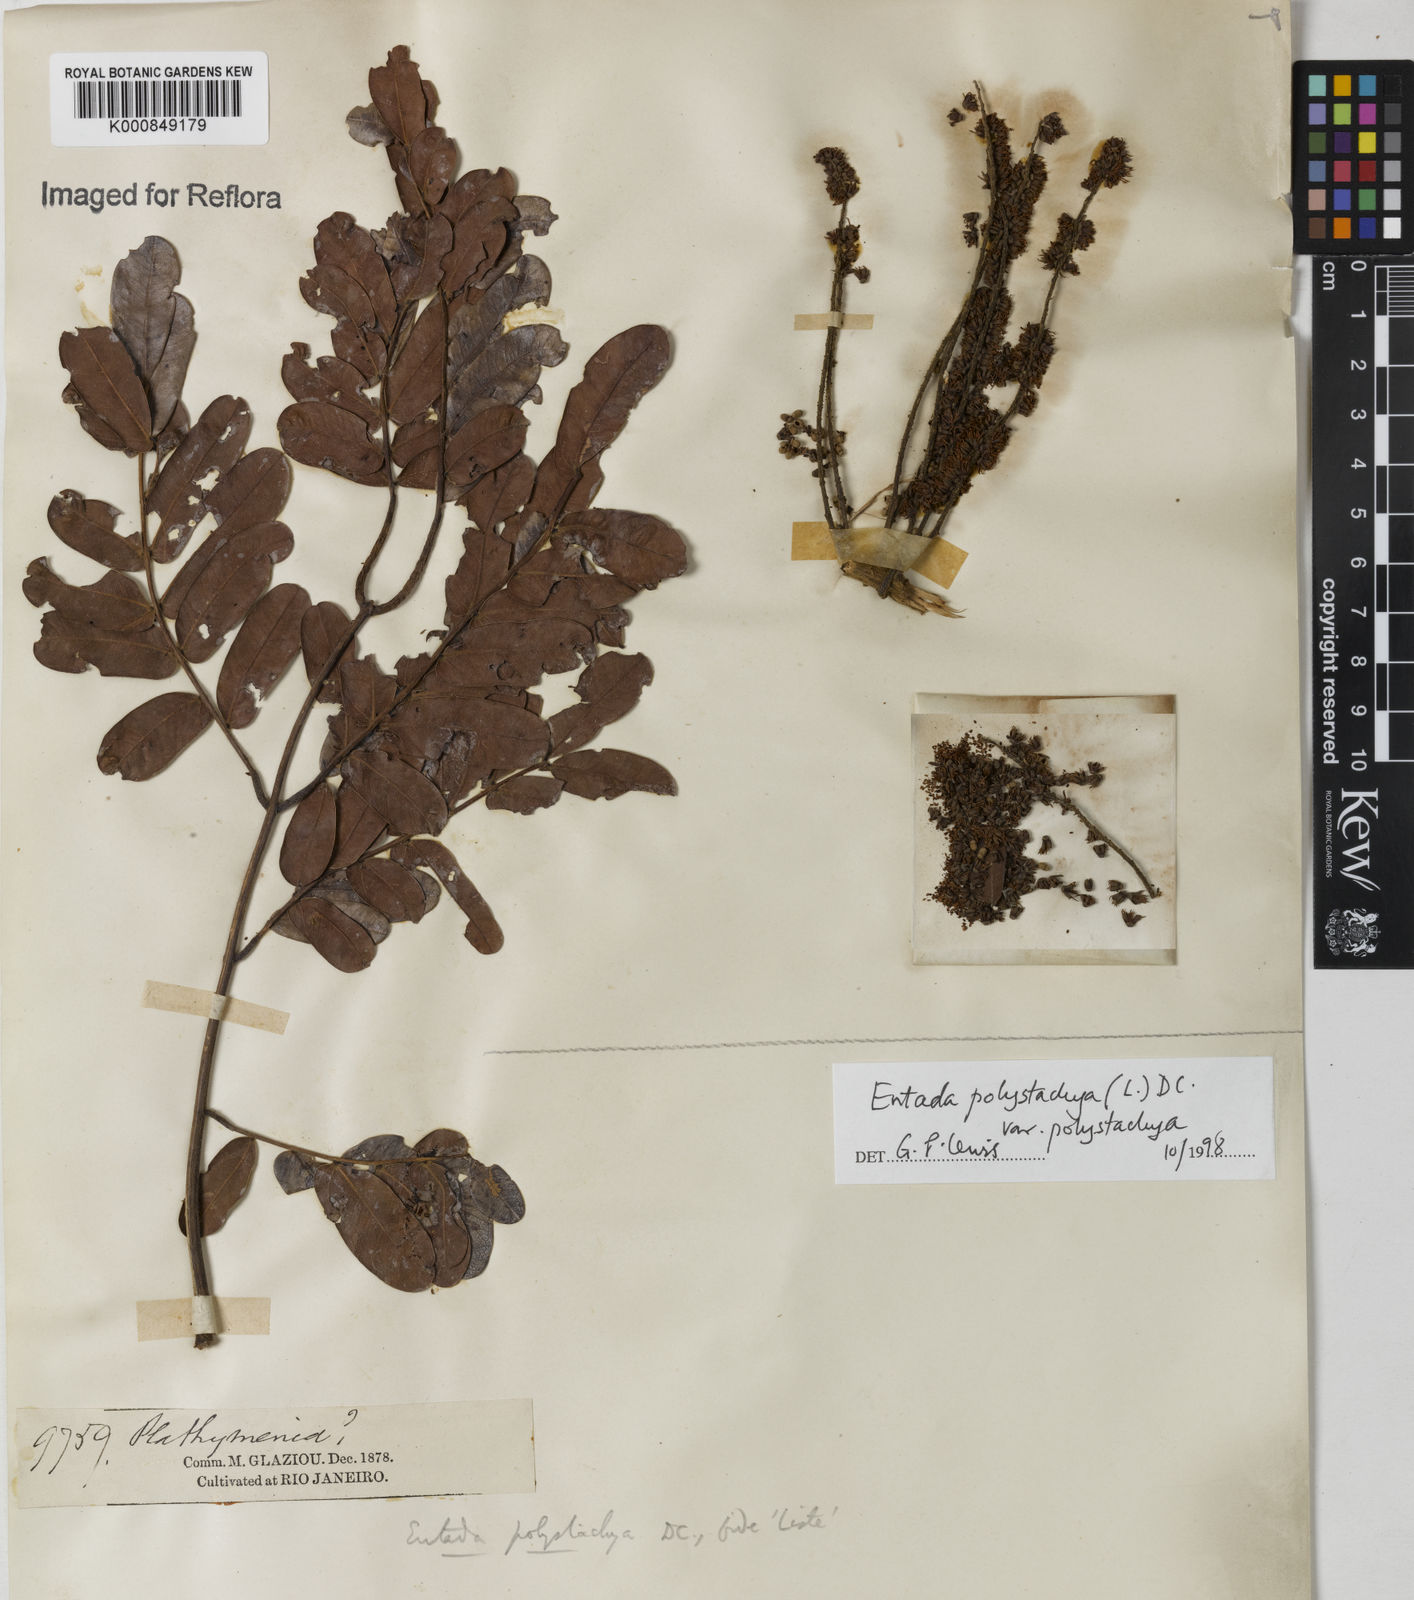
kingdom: Plantae
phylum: Tracheophyta
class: Magnoliopsida
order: Fabales
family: Fabaceae
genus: Entada
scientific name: Entada polystachya
